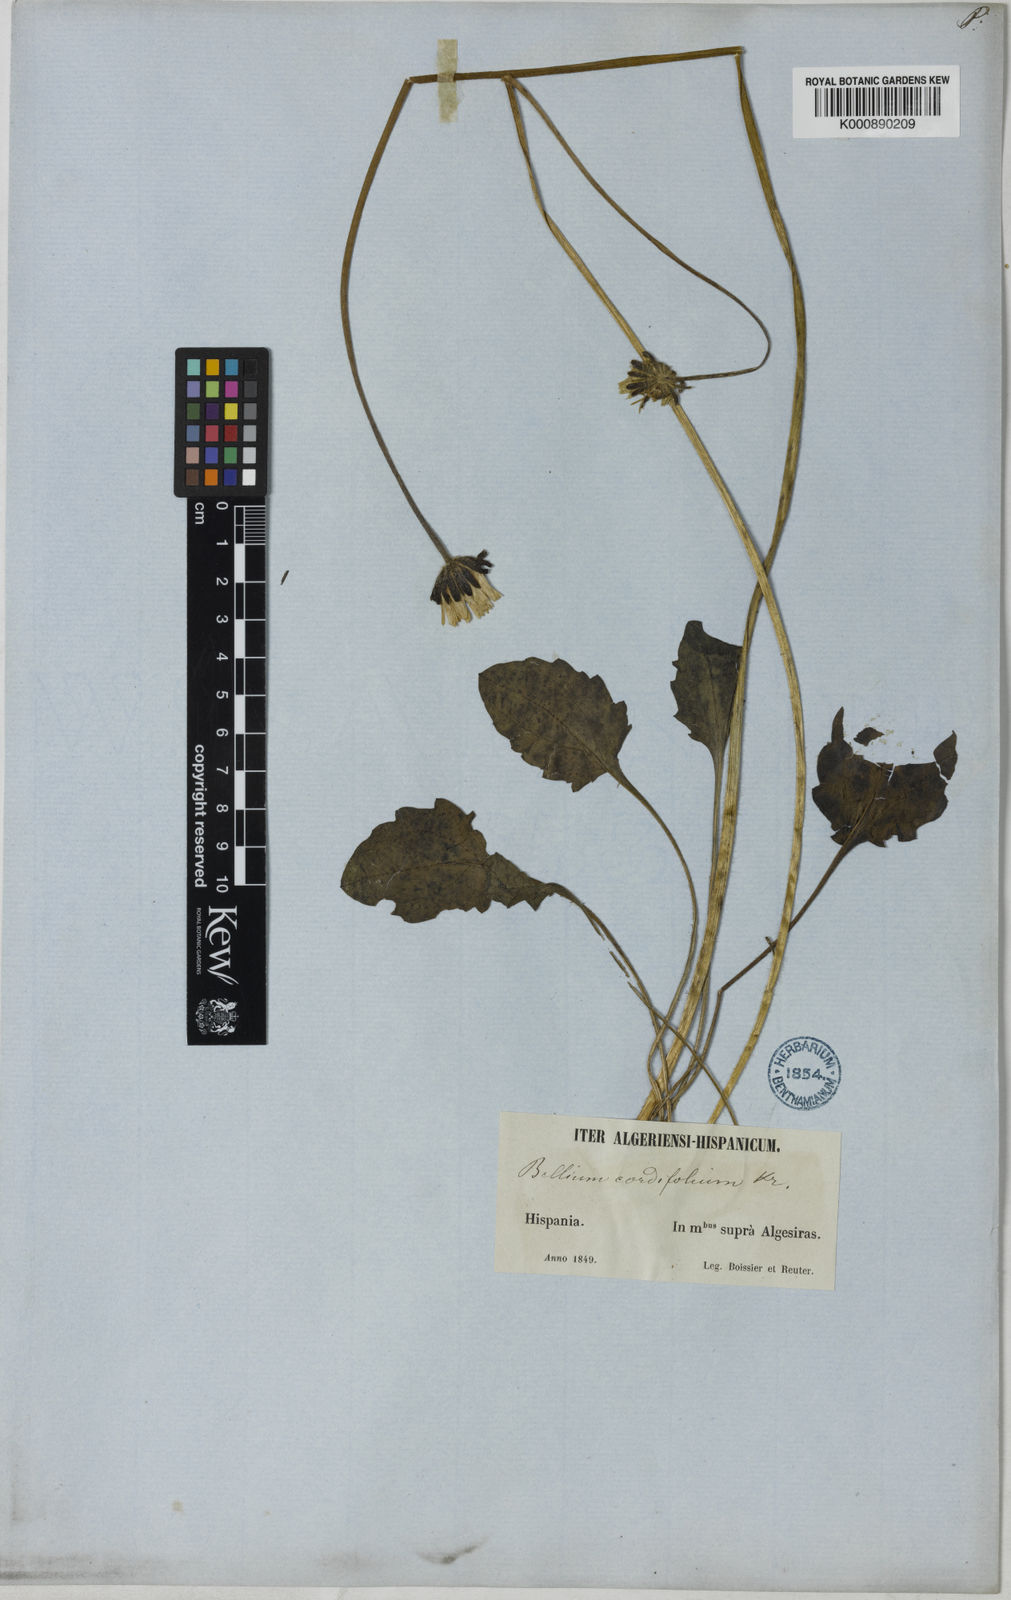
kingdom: Plantae
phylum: Tracheophyta
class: Magnoliopsida
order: Asterales
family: Asteraceae
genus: Bellis
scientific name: Bellis rotundifolia
